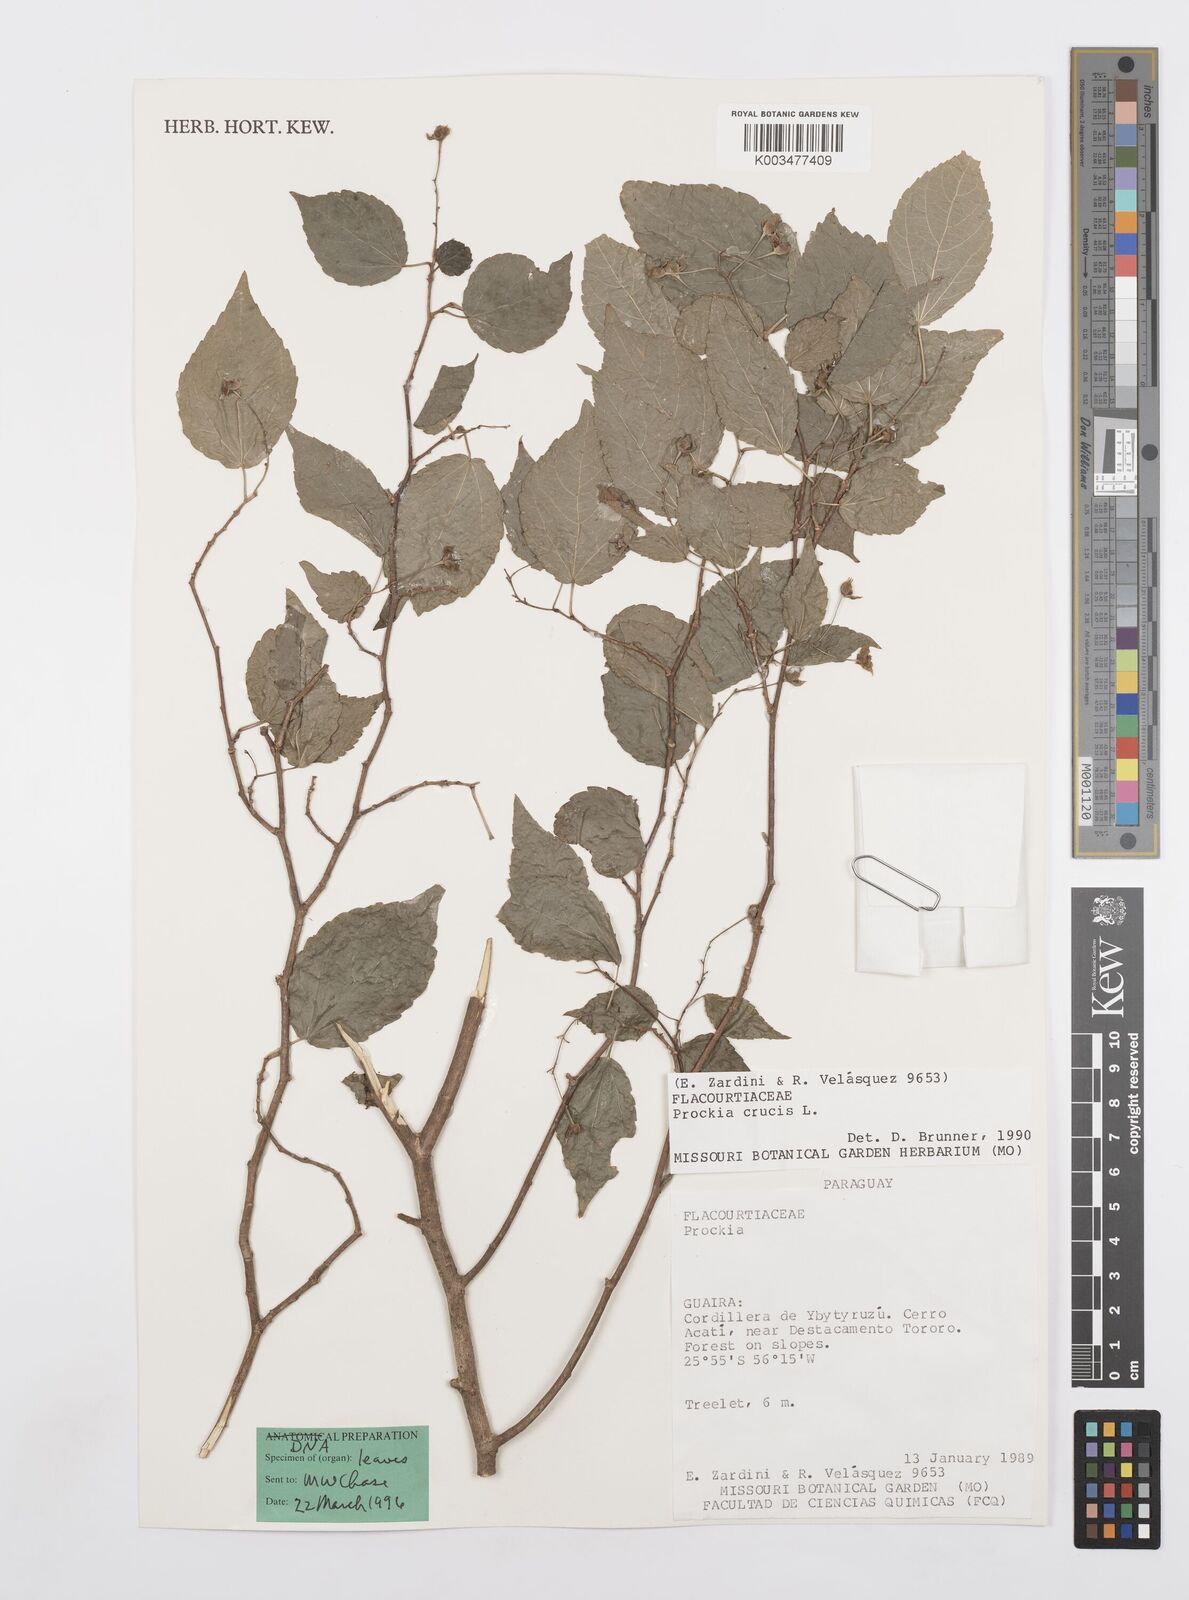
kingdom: Plantae
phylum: Tracheophyta
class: Magnoliopsida
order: Malpighiales
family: Salicaceae
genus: Prockia
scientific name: Prockia crucis
